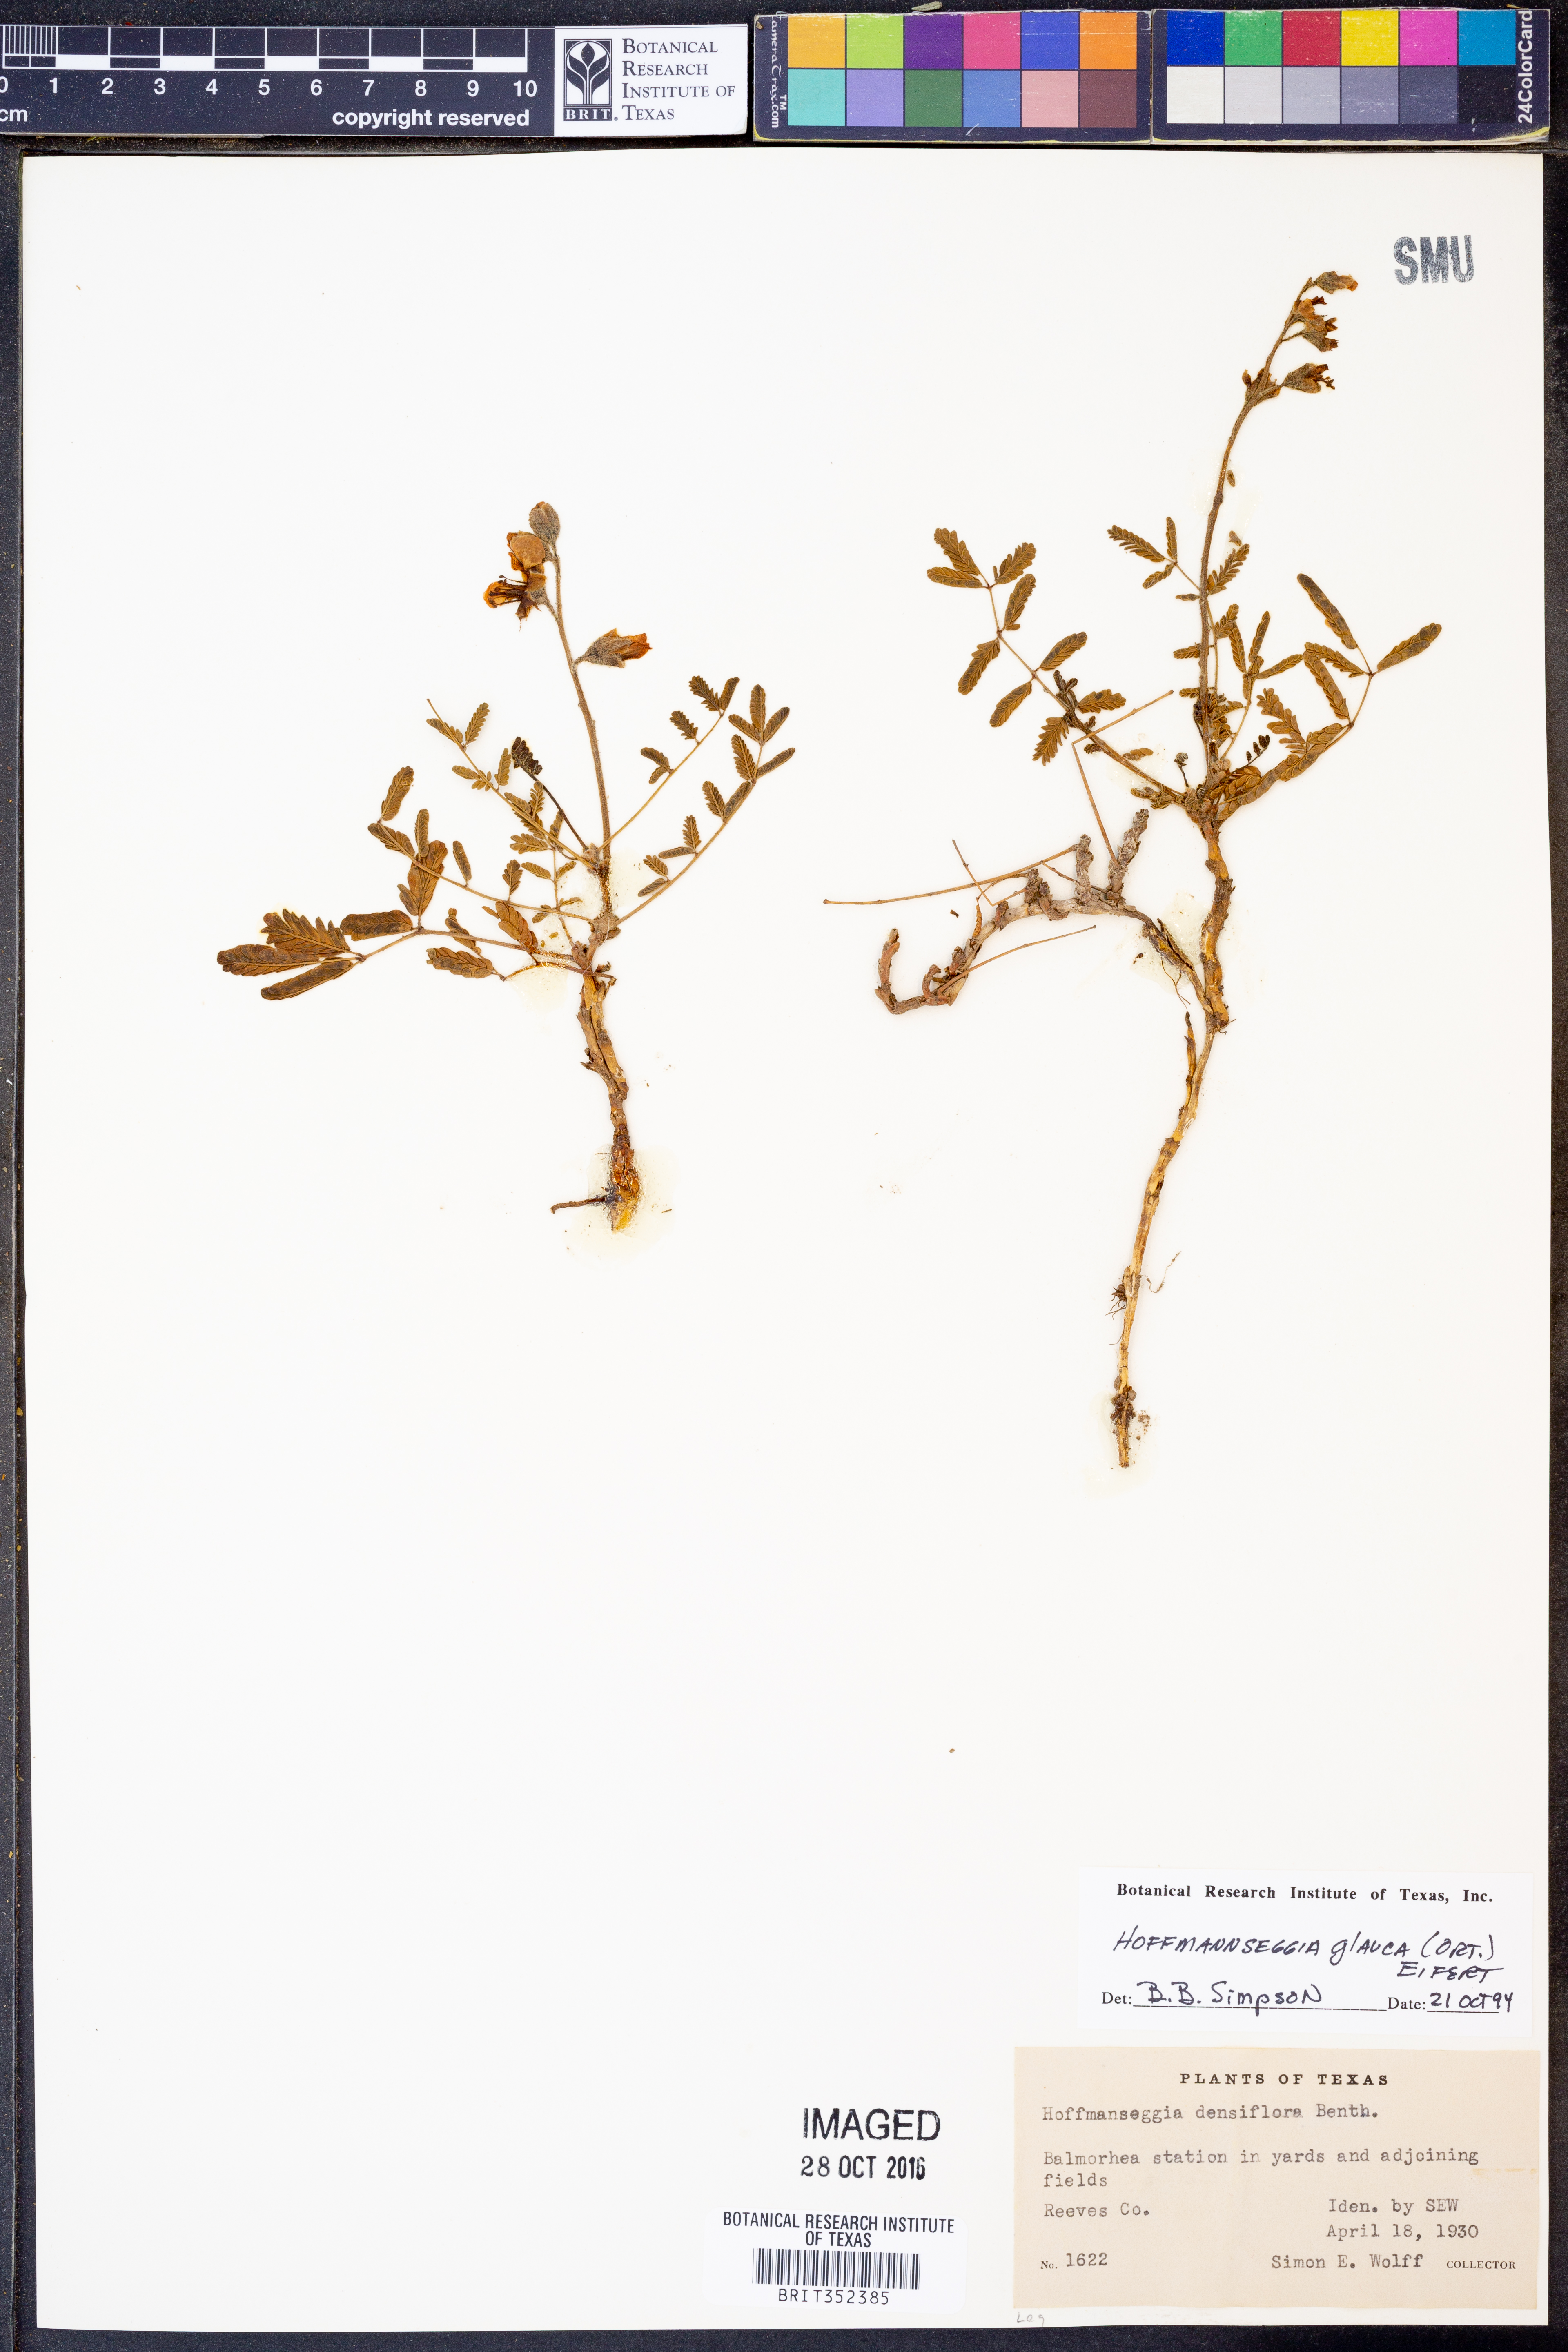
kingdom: Plantae
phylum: Tracheophyta
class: Magnoliopsida
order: Fabales
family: Fabaceae
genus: Hoffmannseggia
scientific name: Hoffmannseggia glauca
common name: Pignut
